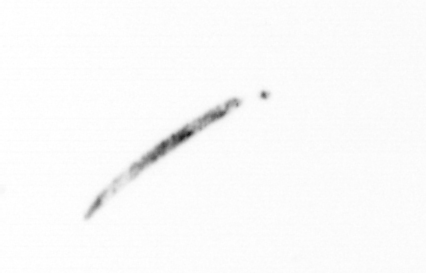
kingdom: Chromista
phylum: Ochrophyta
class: Bacillariophyceae
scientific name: Bacillariophyceae
